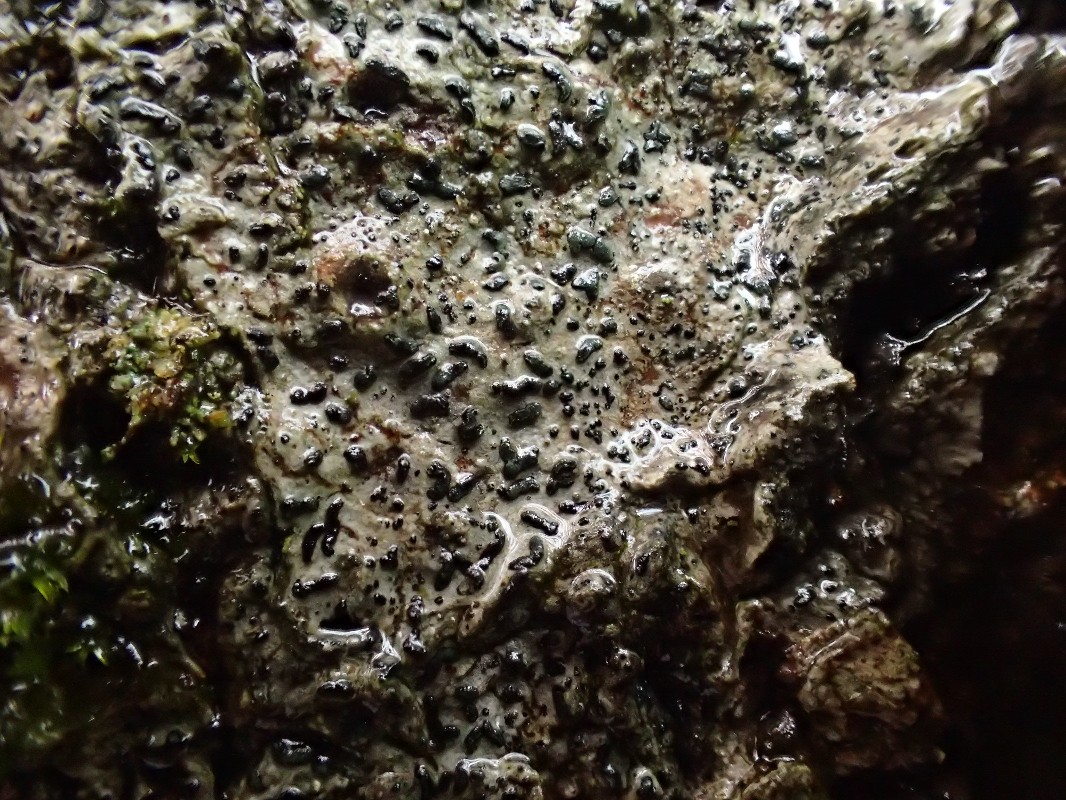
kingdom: Fungi
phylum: Ascomycota
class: Arthoniomycetes
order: Arthoniales
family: Opegraphaceae
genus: Opegrapha
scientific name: Opegrapha vermicellifera
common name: nåleprikket bogstavlav
